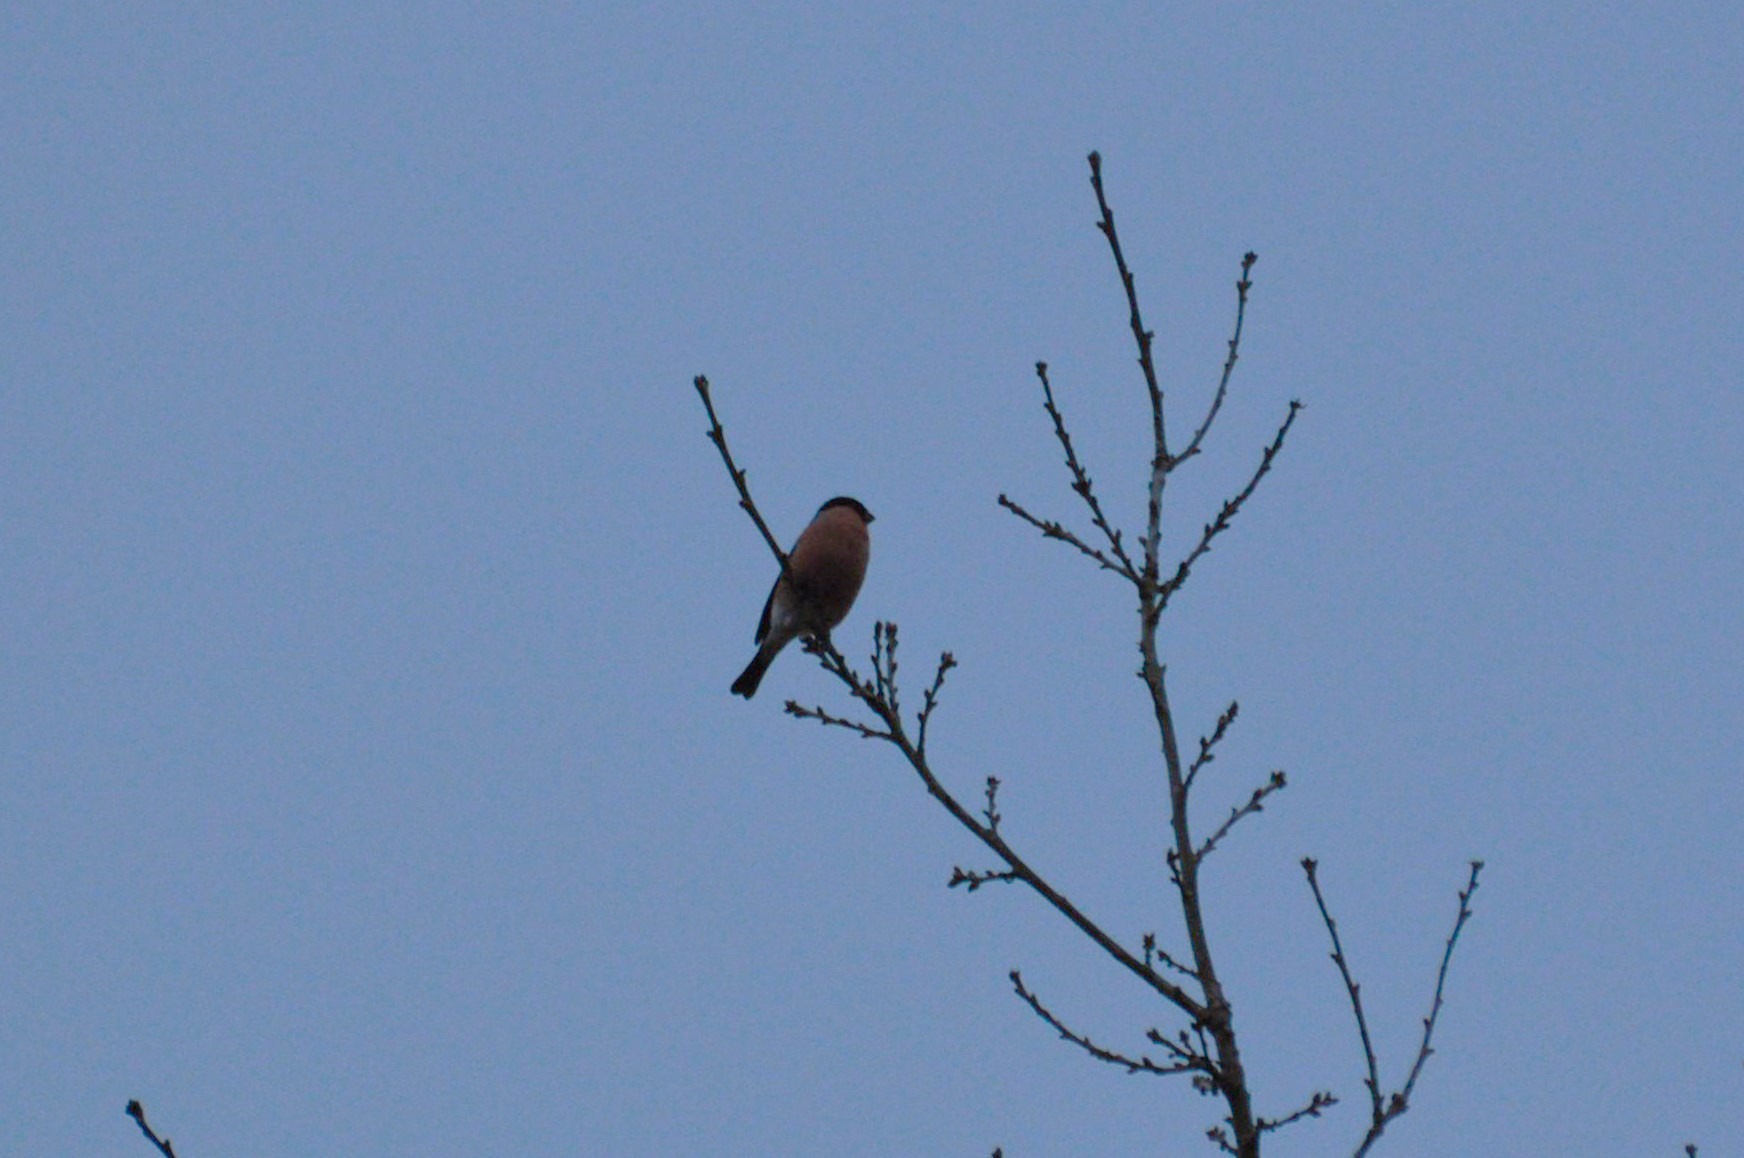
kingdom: Animalia
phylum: Chordata
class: Aves
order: Passeriformes
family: Fringillidae
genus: Pyrrhula
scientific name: Pyrrhula pyrrhula
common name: Dompap
